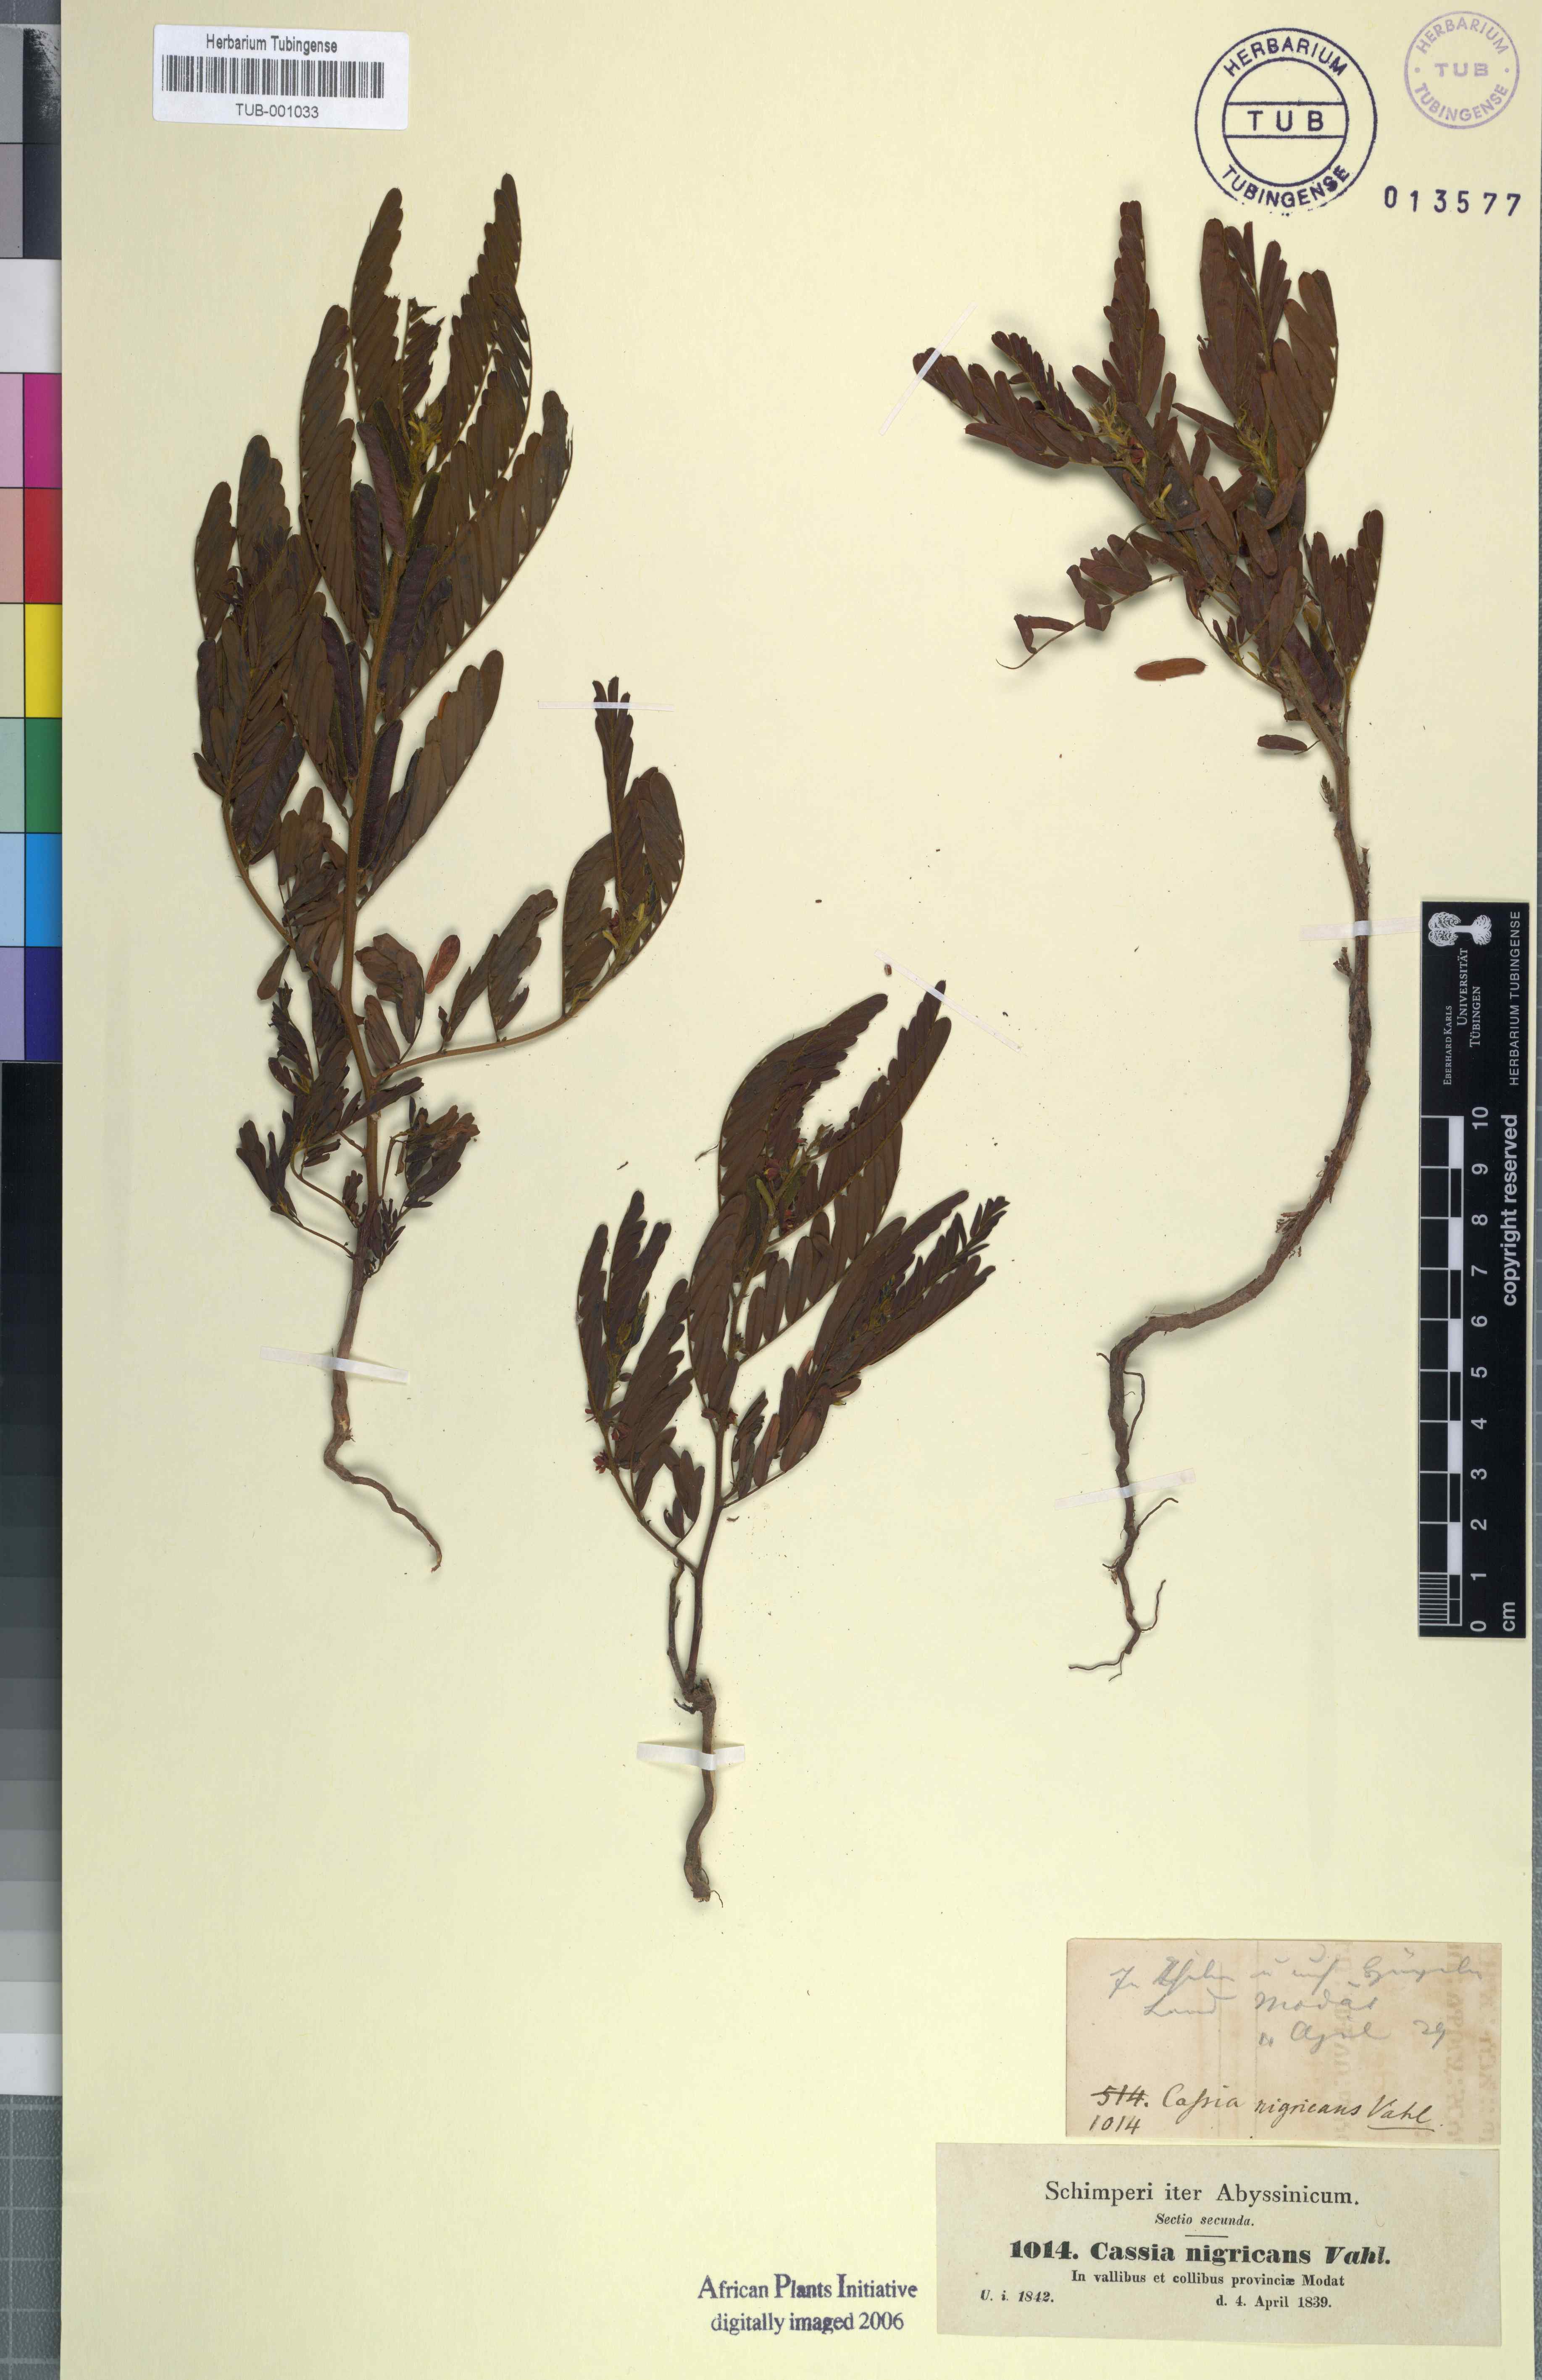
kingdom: Plantae
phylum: Tracheophyta
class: Magnoliopsida
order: Fabales
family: Fabaceae
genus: Chamaecrista
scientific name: Chamaecrista nigricans
